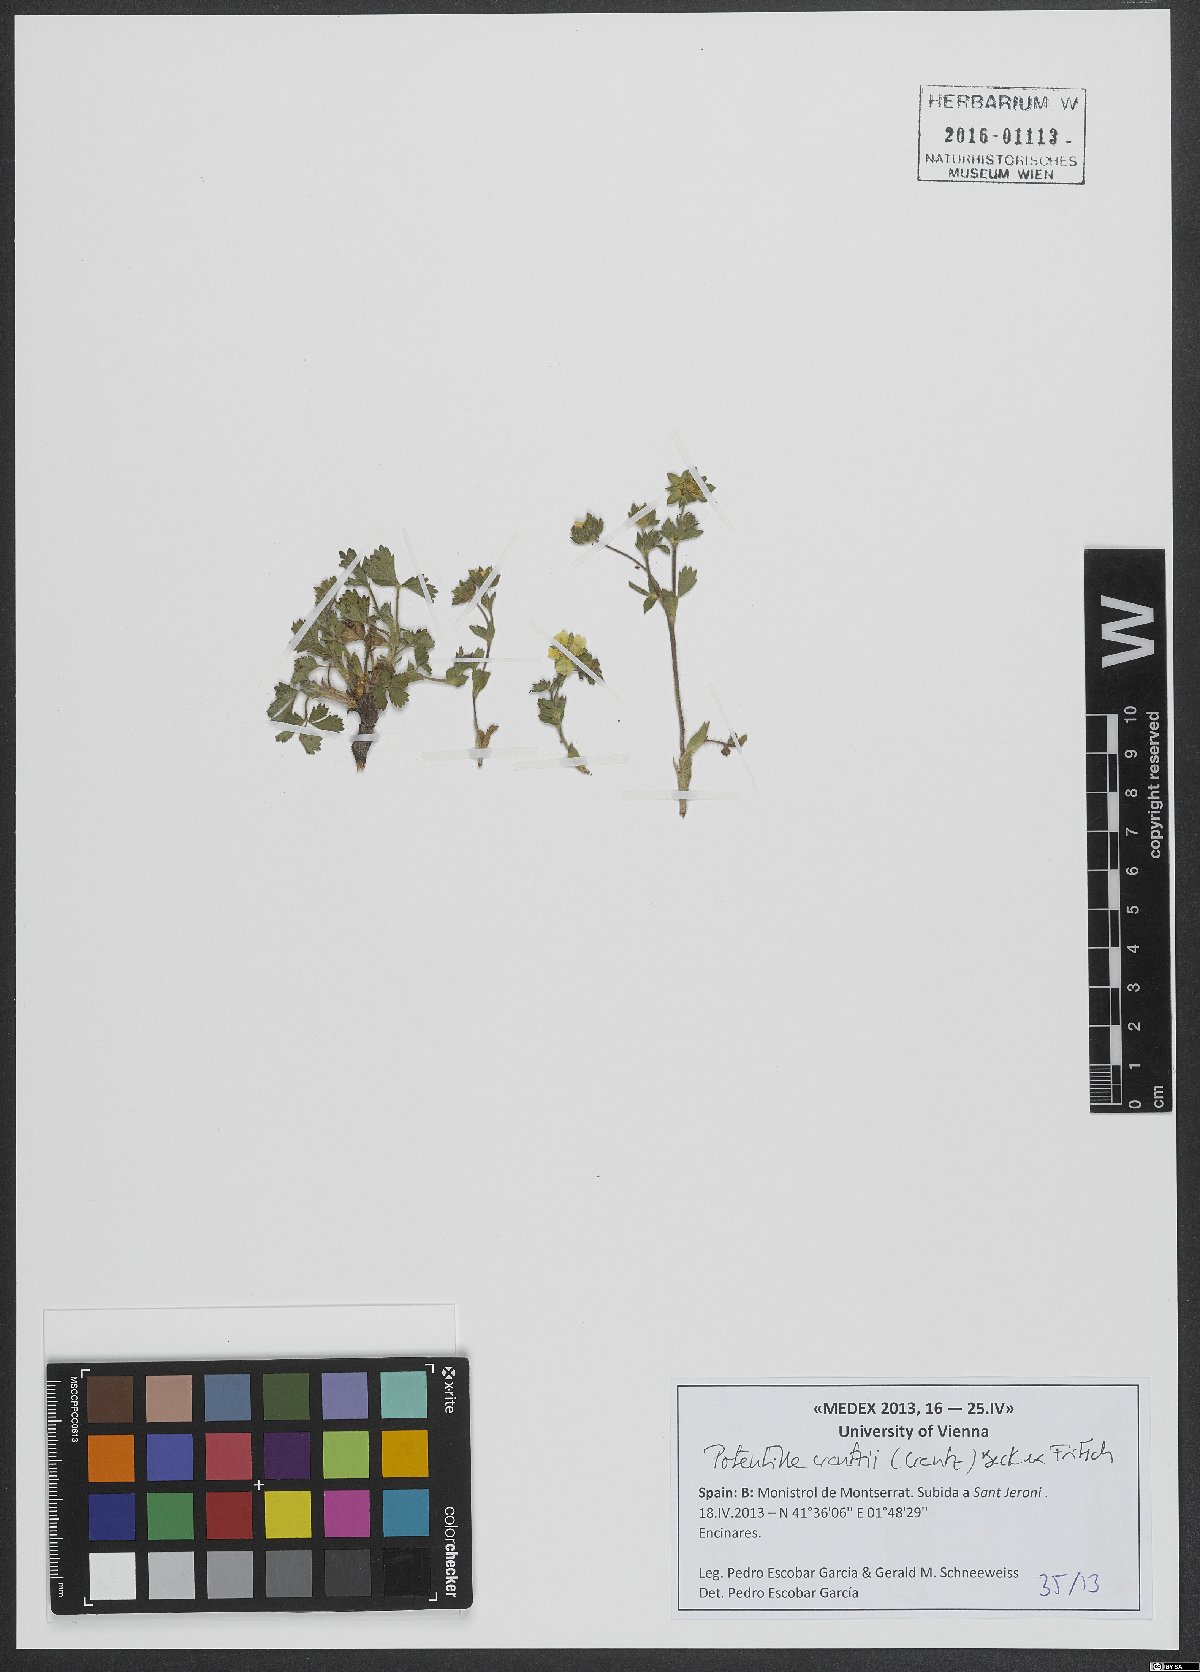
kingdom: Plantae
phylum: Tracheophyta
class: Magnoliopsida
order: Rosales
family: Rosaceae
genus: Potentilla
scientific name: Potentilla crantzii
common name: Alpine cinquefoil
